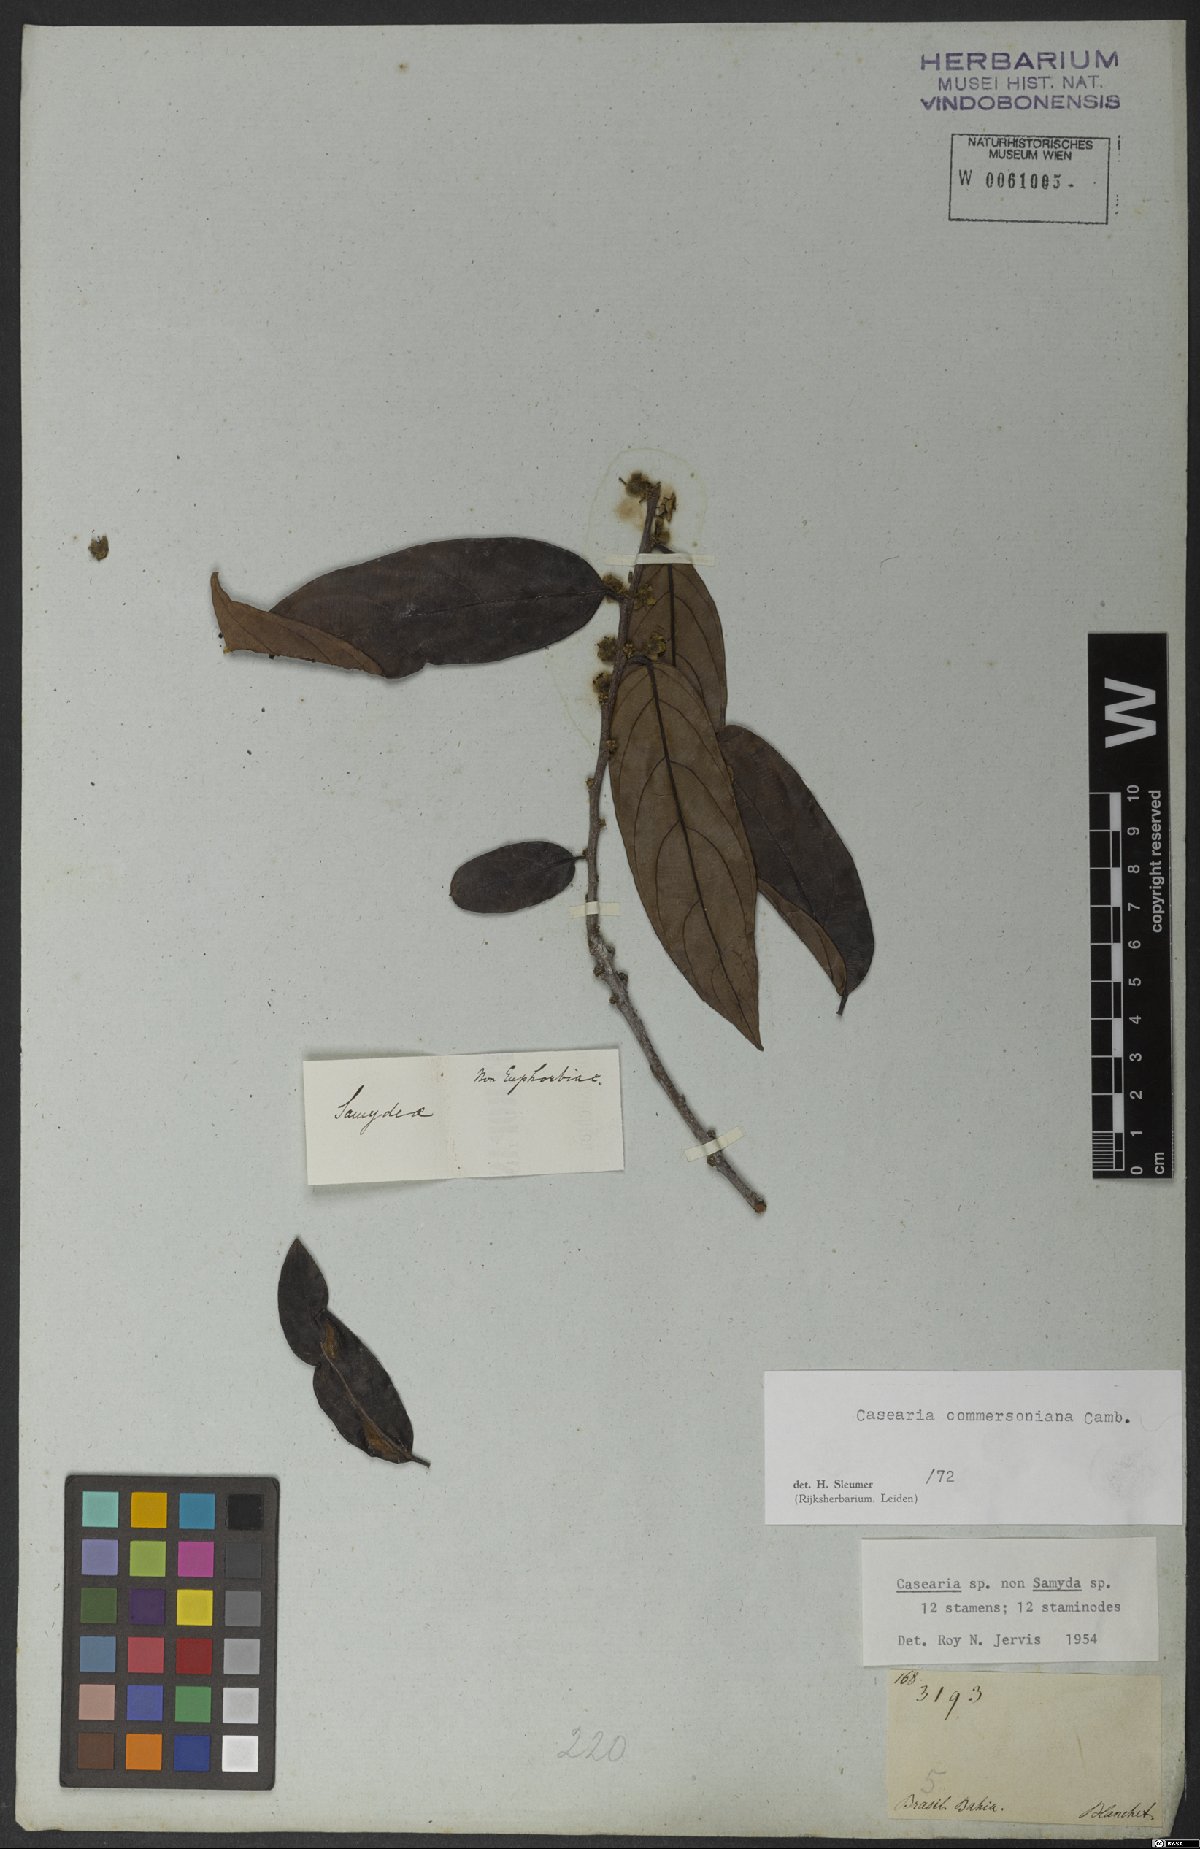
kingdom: Plantae
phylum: Tracheophyta
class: Magnoliopsida
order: Malpighiales
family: Salicaceae
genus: Piparea
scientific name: Piparea dentata
